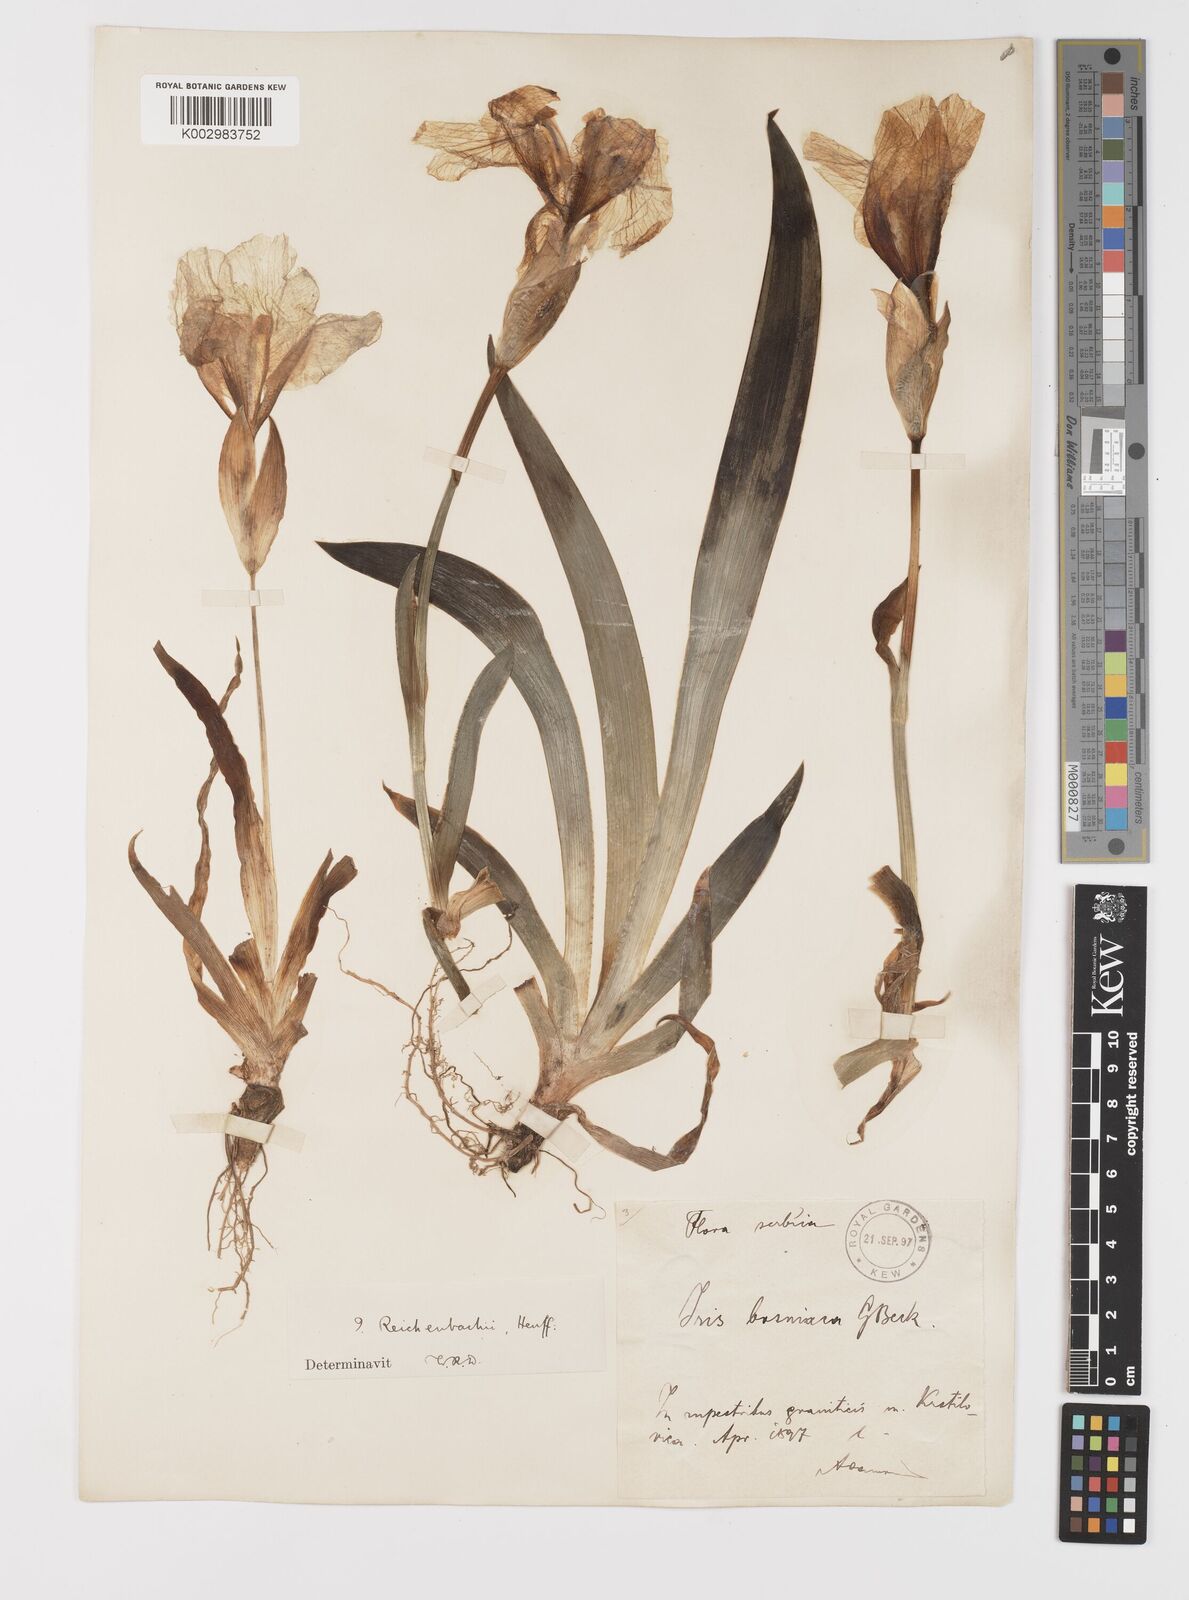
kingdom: Plantae
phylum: Tracheophyta
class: Liliopsida
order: Asparagales
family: Iridaceae
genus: Iris
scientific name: Iris reichenbachii
